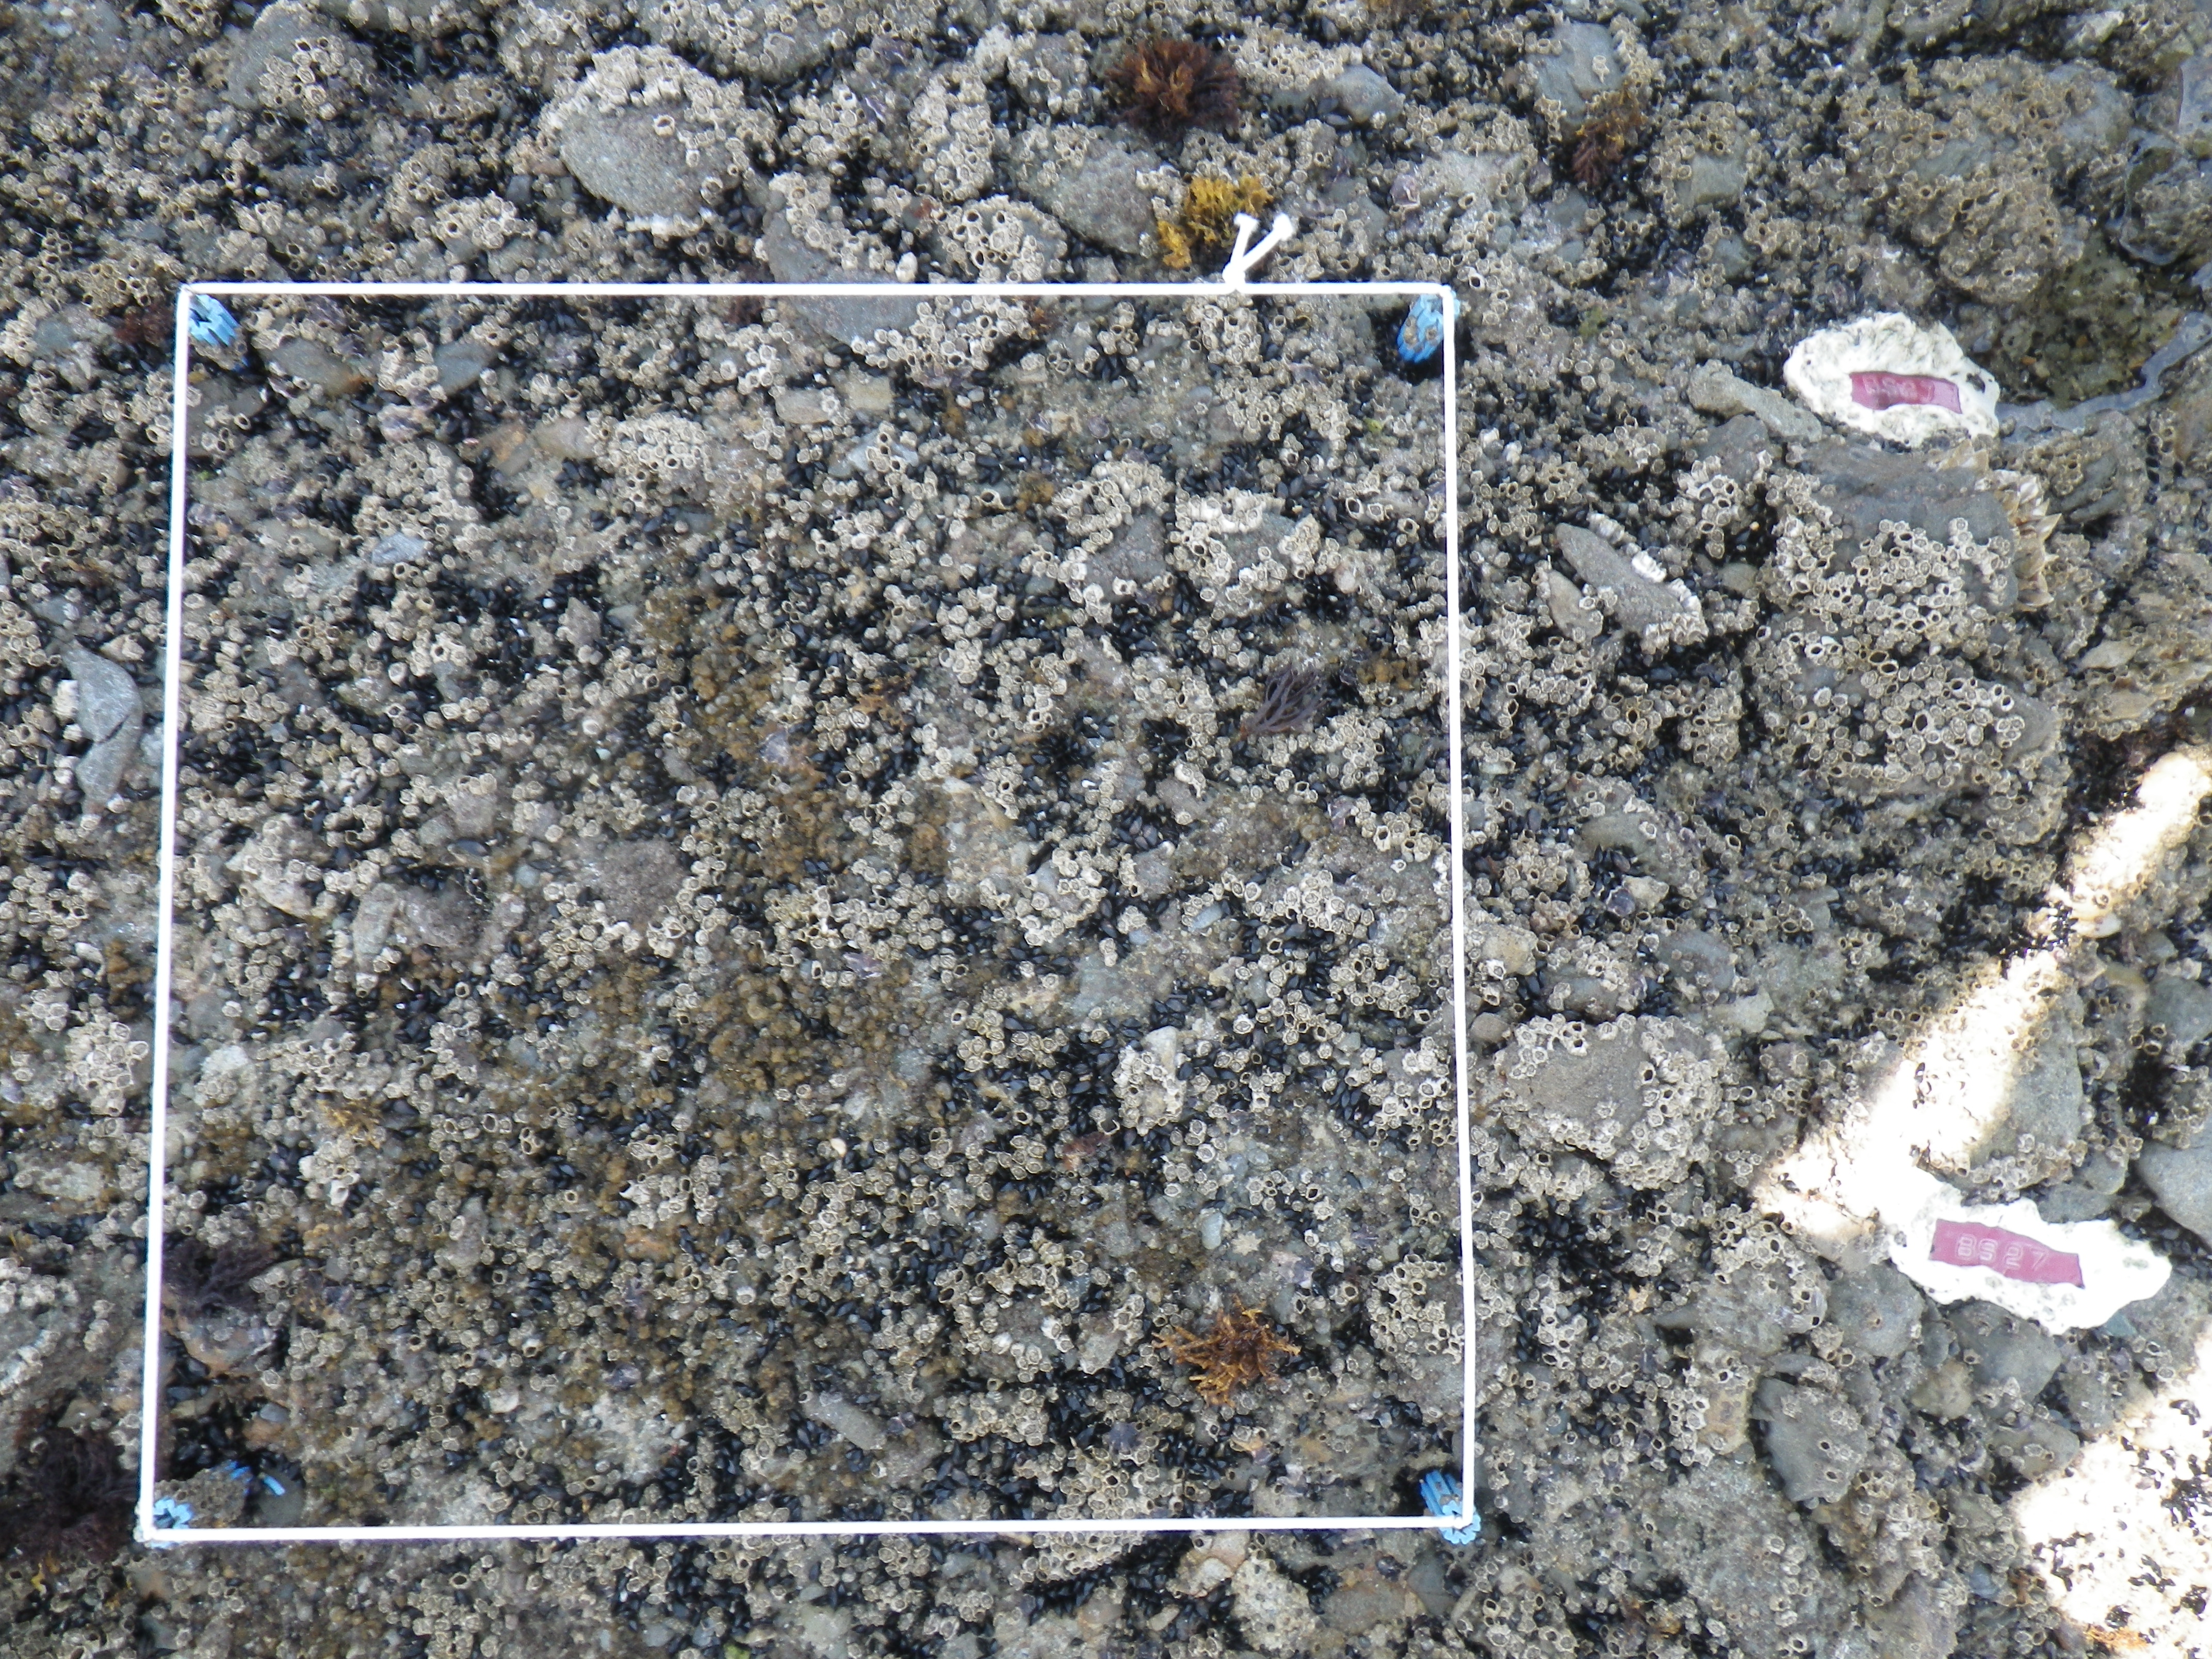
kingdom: Animalia
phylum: Arthropoda
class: Maxillopoda
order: Sessilia
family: Chthamalidae
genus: Chthamalus
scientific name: Chthamalus challengeri
